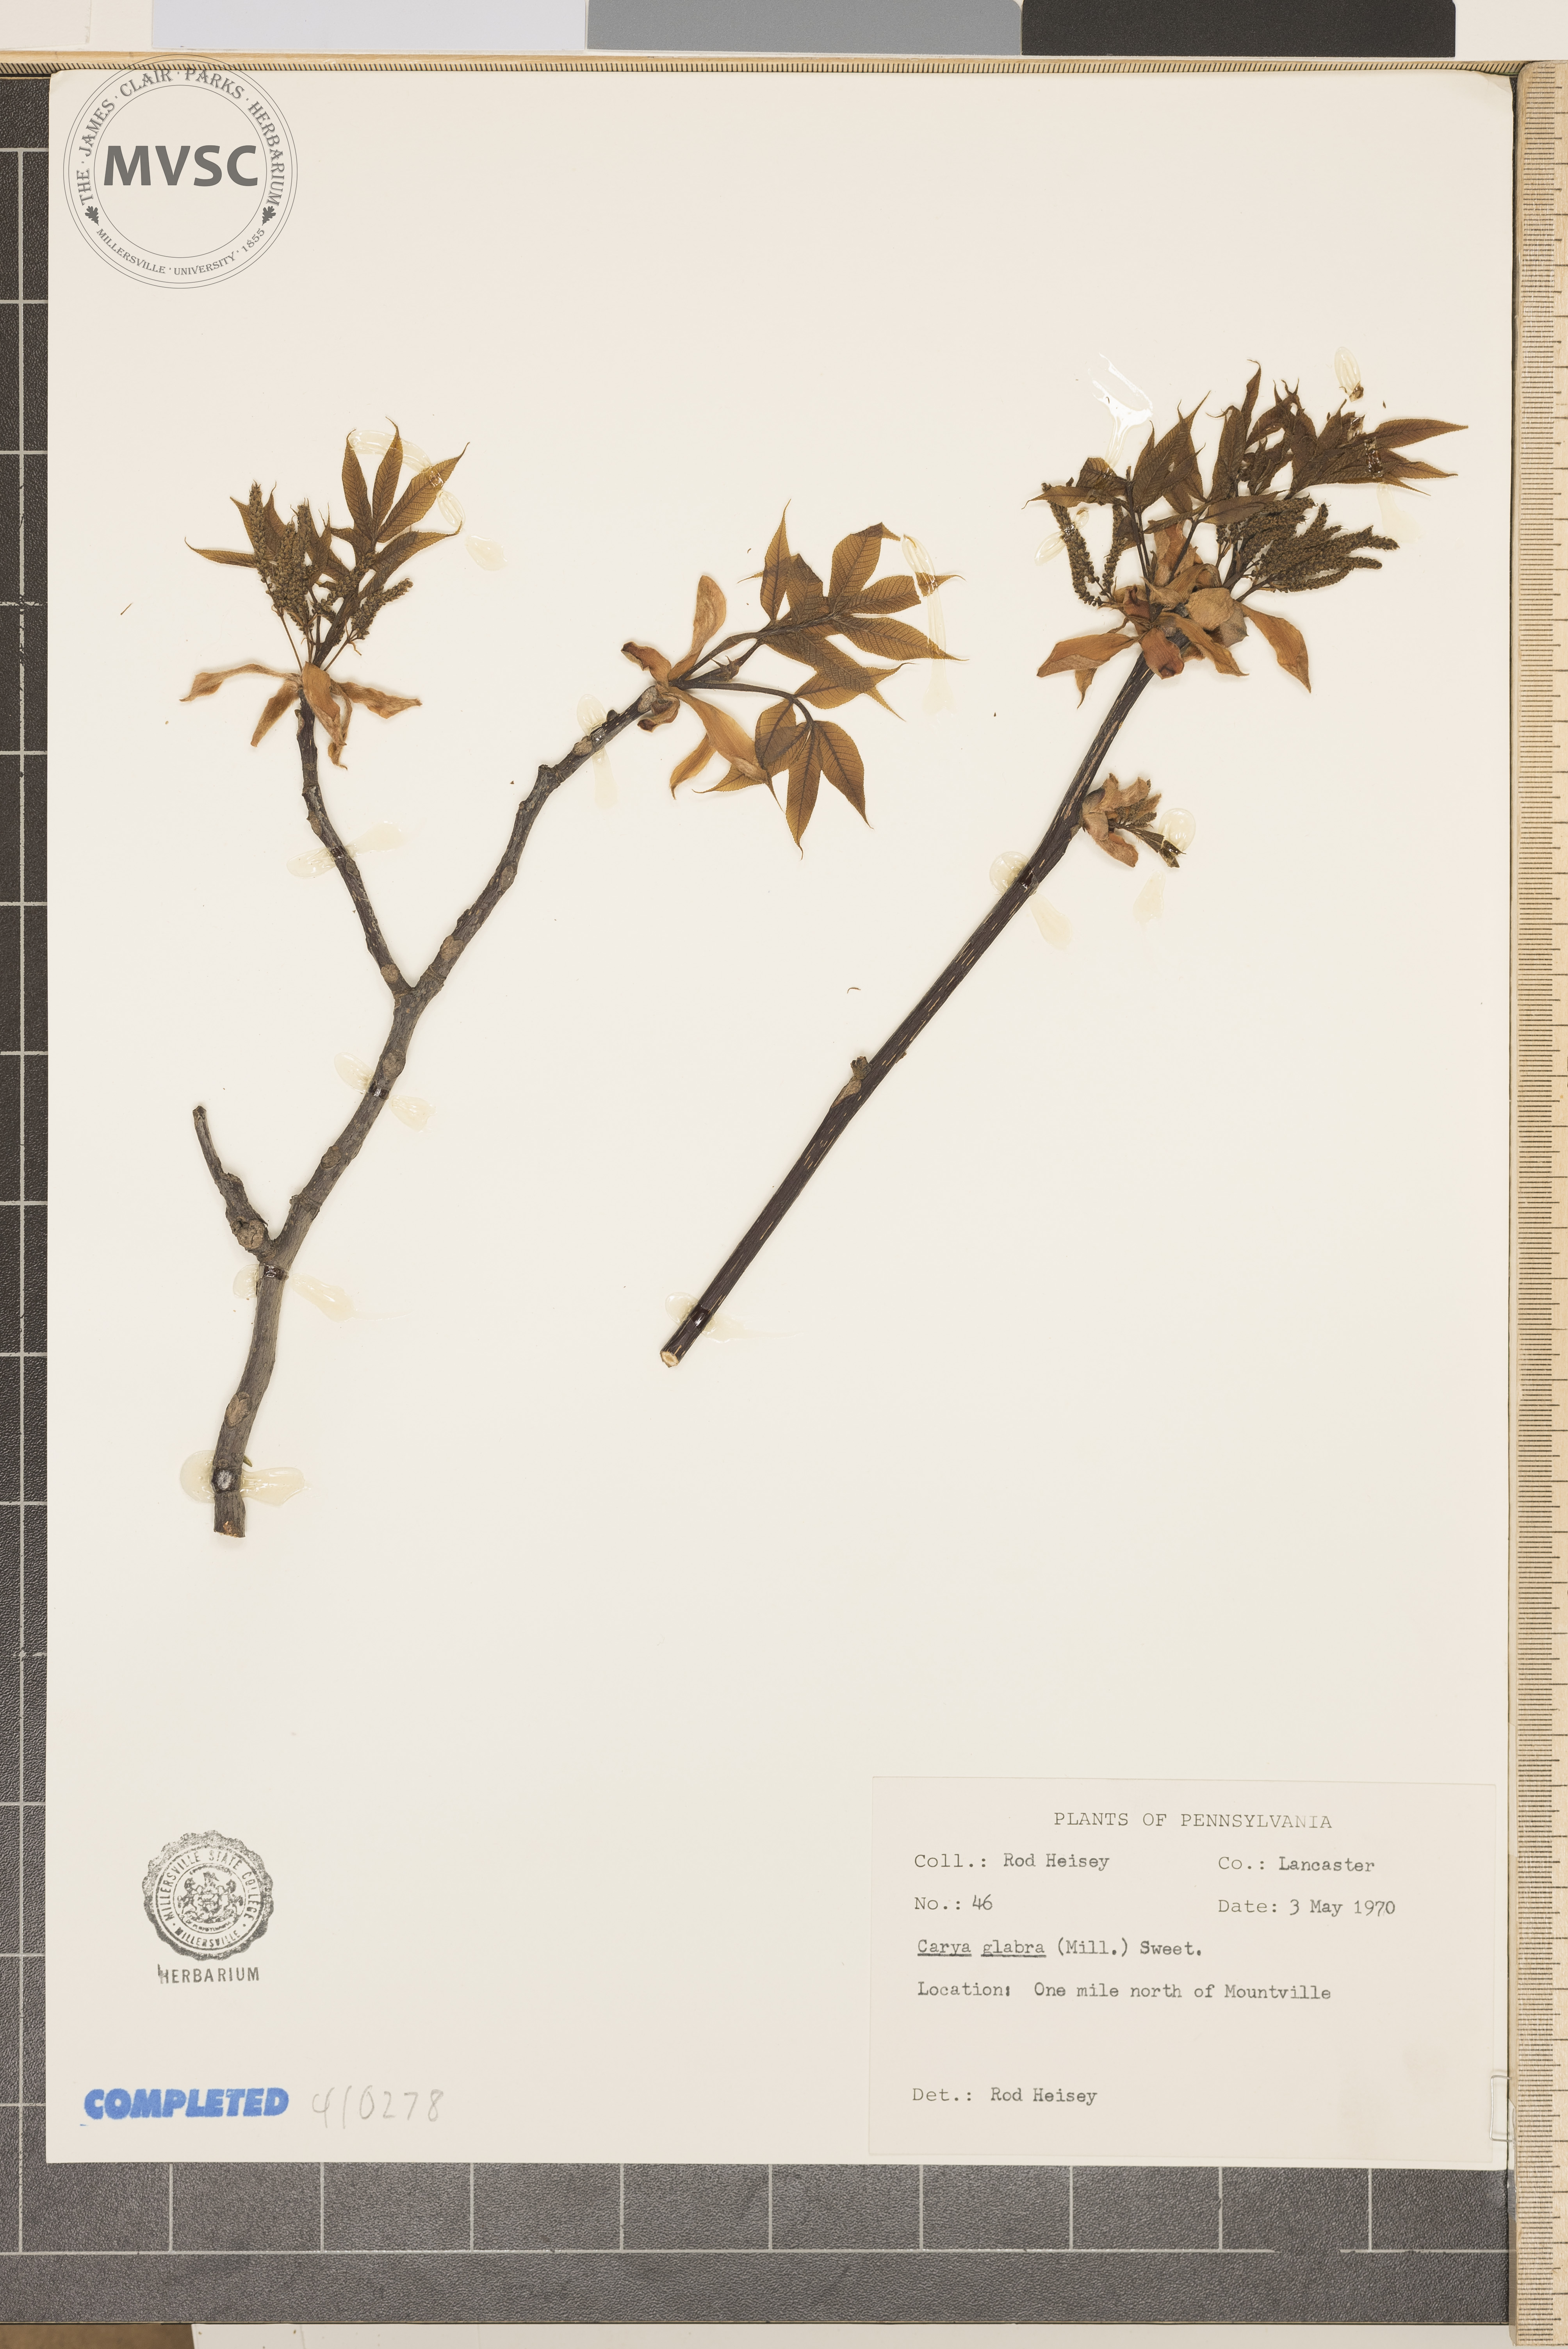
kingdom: Plantae
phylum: Tracheophyta
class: Magnoliopsida
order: Fagales
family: Juglandaceae
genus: Carya
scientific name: Carya glabra
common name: Pignut hickory
